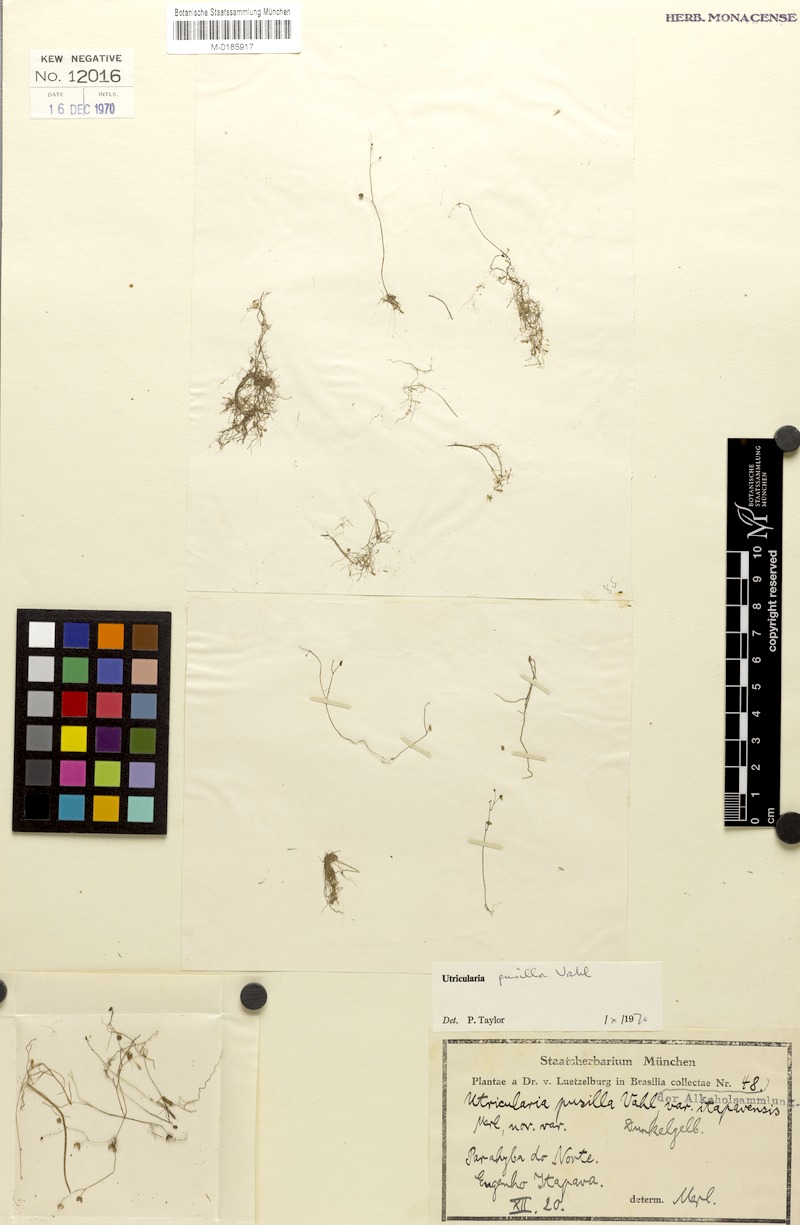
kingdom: Plantae
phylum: Tracheophyta
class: Magnoliopsida
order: Lamiales
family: Lentibulariaceae
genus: Utricularia
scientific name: Utricularia pusilla
